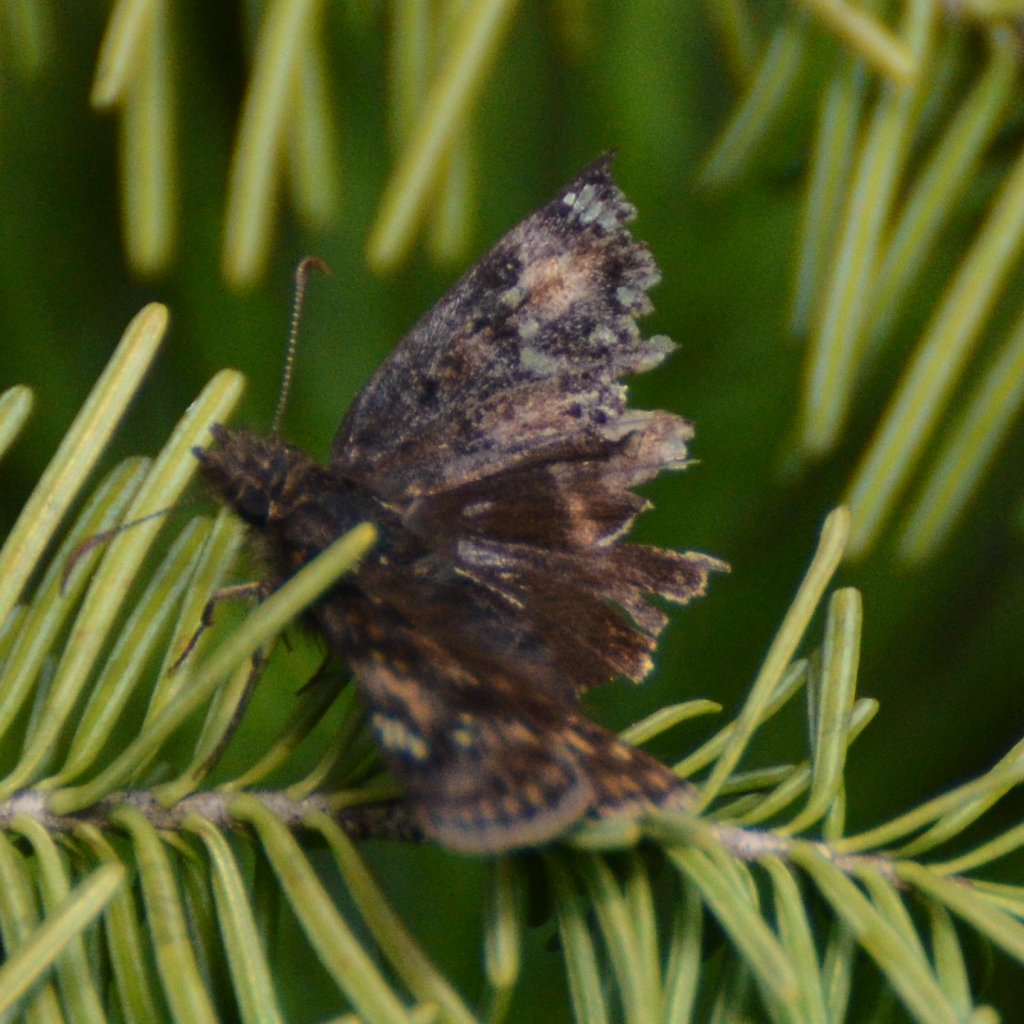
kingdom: Animalia
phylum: Arthropoda
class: Insecta
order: Lepidoptera
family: Hesperiidae
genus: Gesta
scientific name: Gesta
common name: Juvenal's Duskywing
